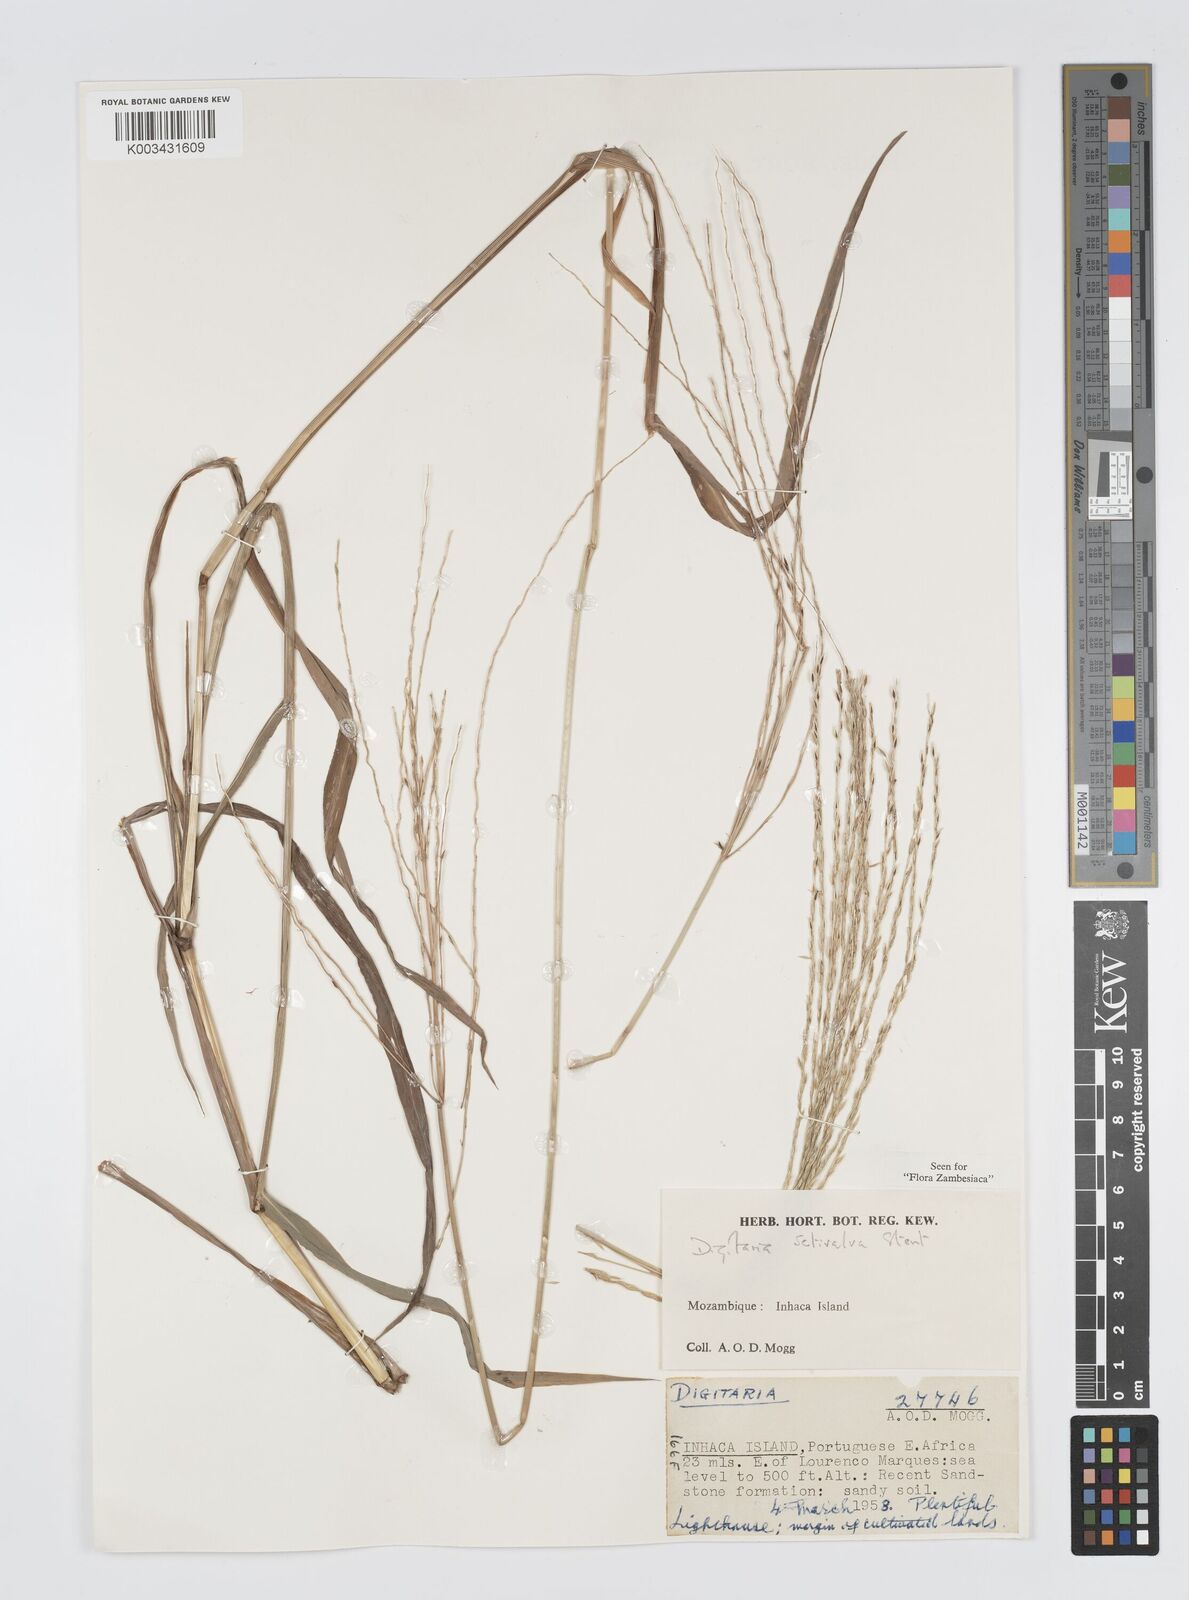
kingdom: Plantae
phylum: Tracheophyta
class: Liliopsida
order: Poales
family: Poaceae
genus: Digitaria
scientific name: Digitaria gymnostachys
